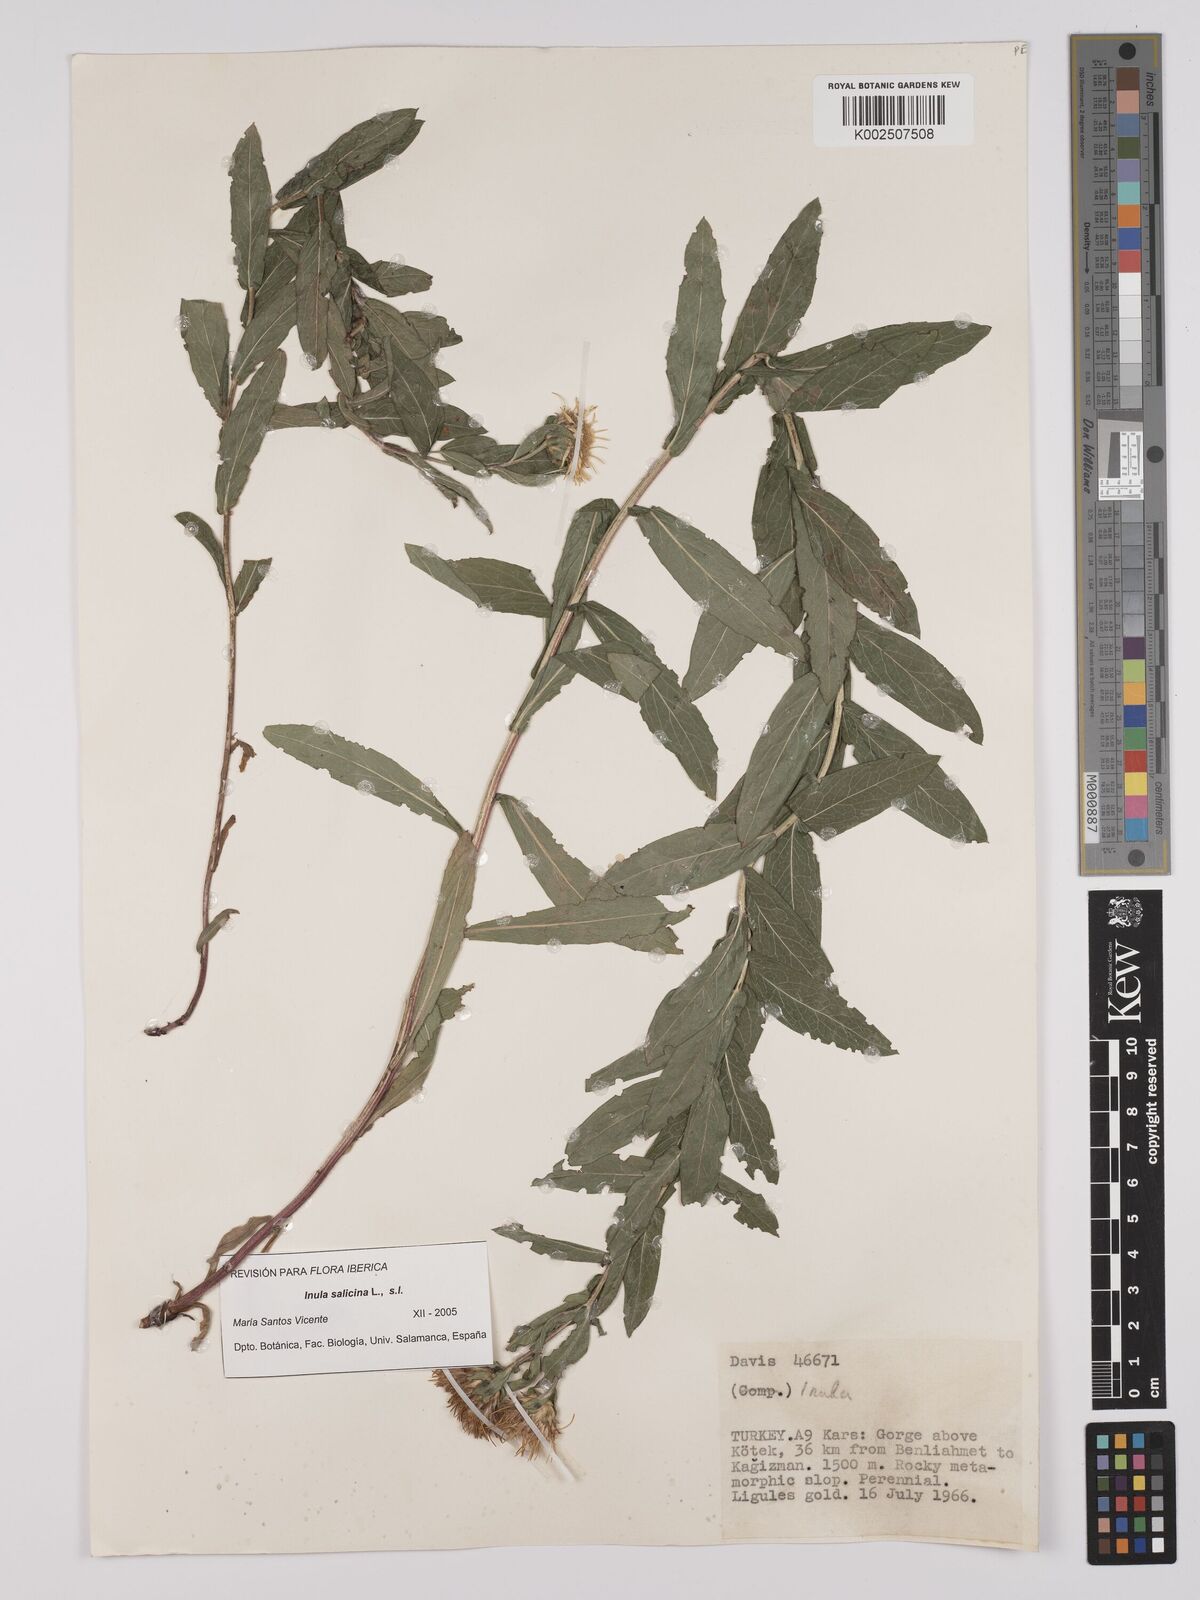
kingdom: Plantae
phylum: Tracheophyta
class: Magnoliopsida
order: Asterales
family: Asteraceae
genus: Pentanema
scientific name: Pentanema salicinum
